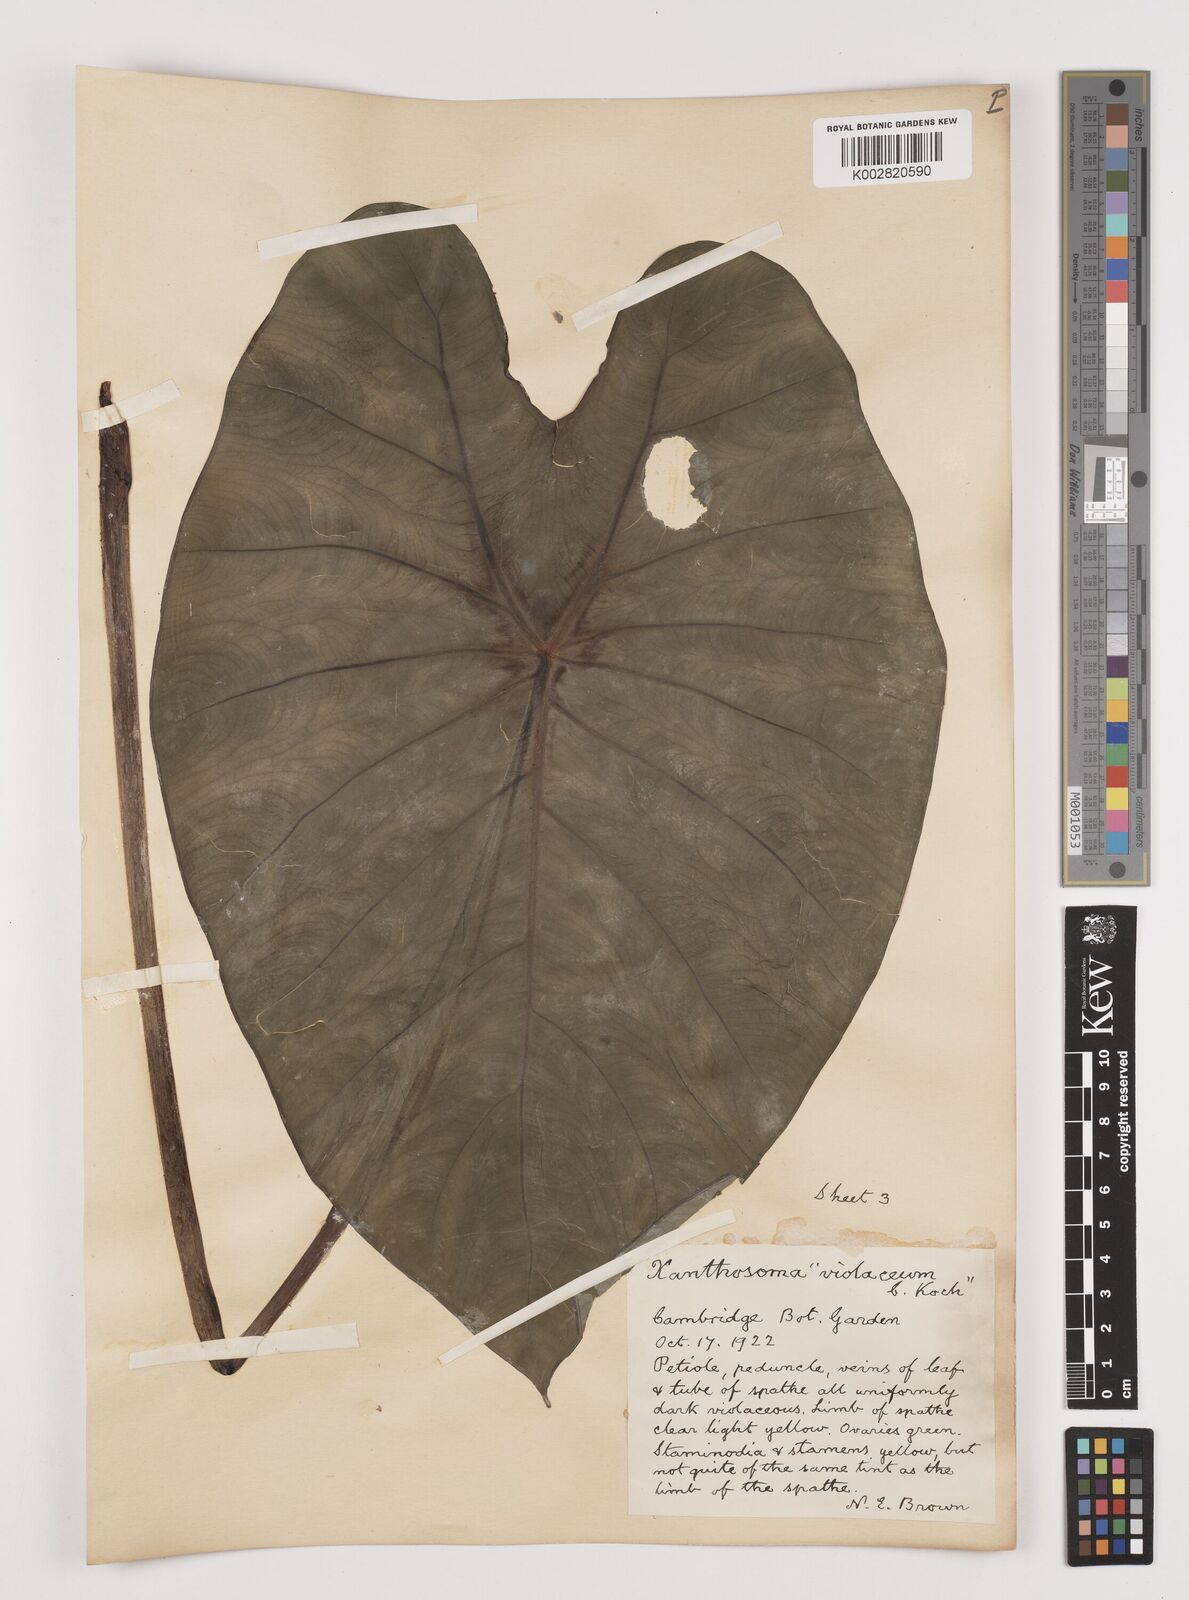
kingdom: Plantae
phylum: Tracheophyta
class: Liliopsida
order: Alismatales
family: Araceae
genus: Colocasia
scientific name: Colocasia esculenta
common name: Taro
